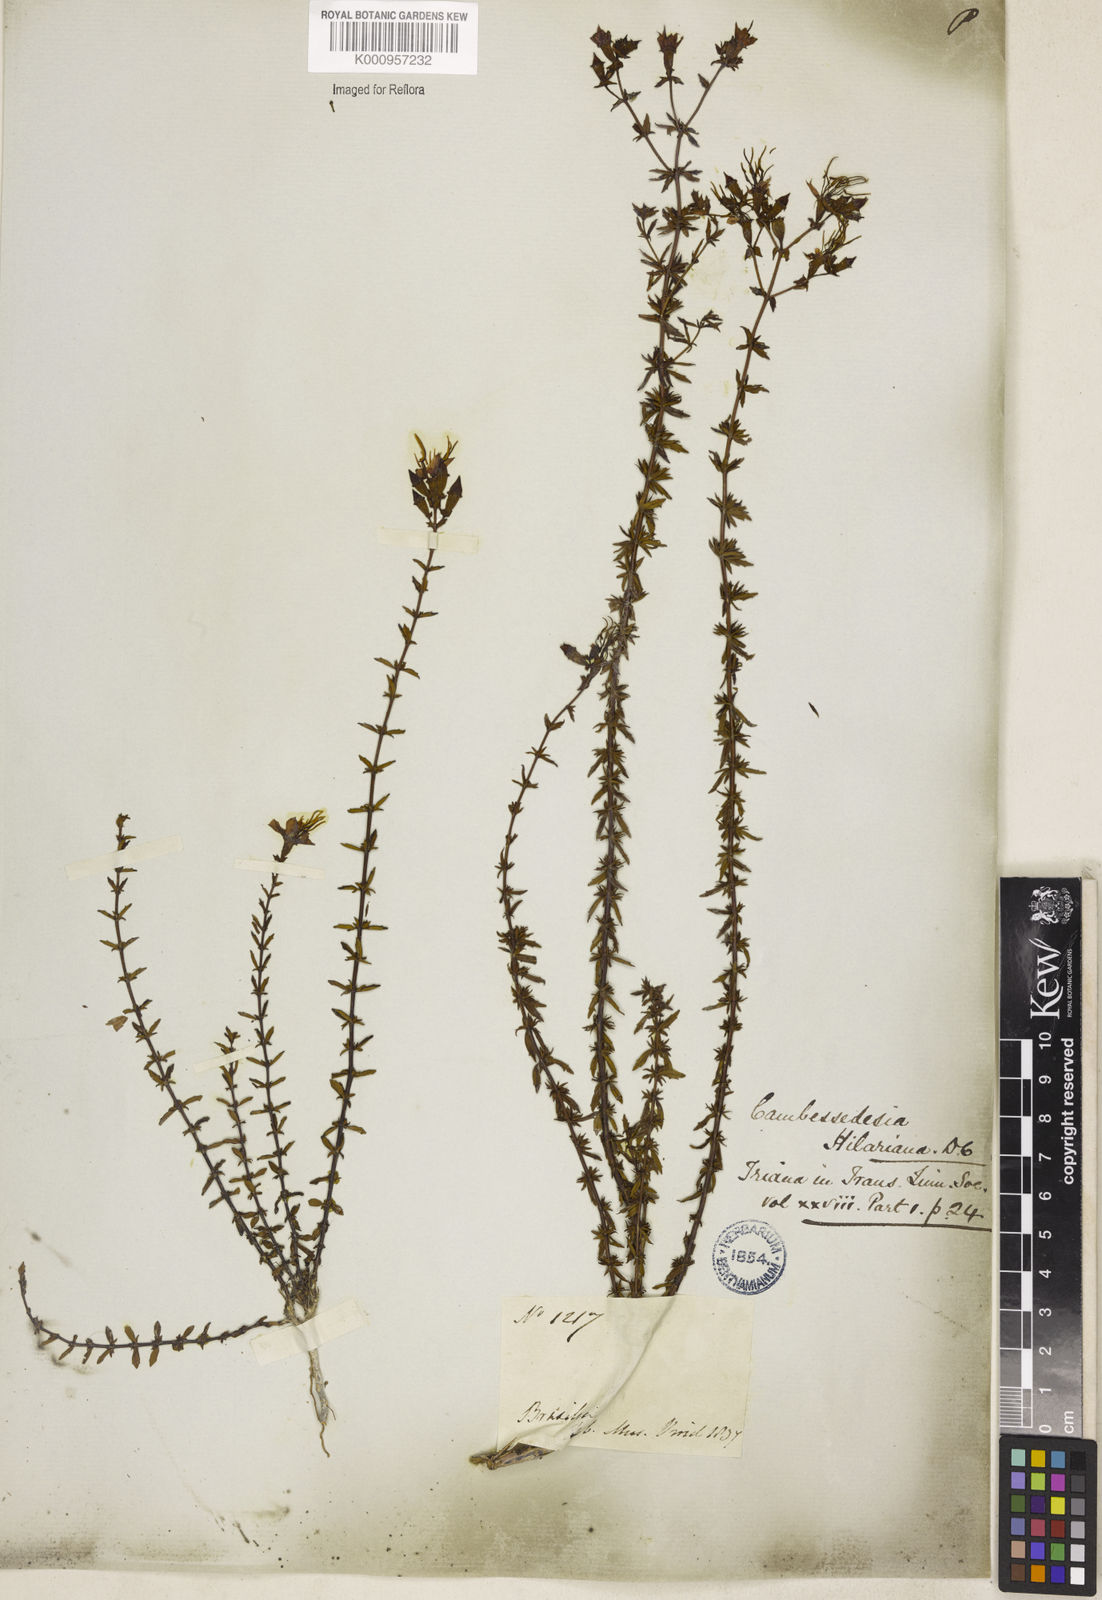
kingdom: Plantae
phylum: Tracheophyta
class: Magnoliopsida
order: Myrtales
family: Melastomataceae
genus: Cambessedesia
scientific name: Cambessedesia hilariana
